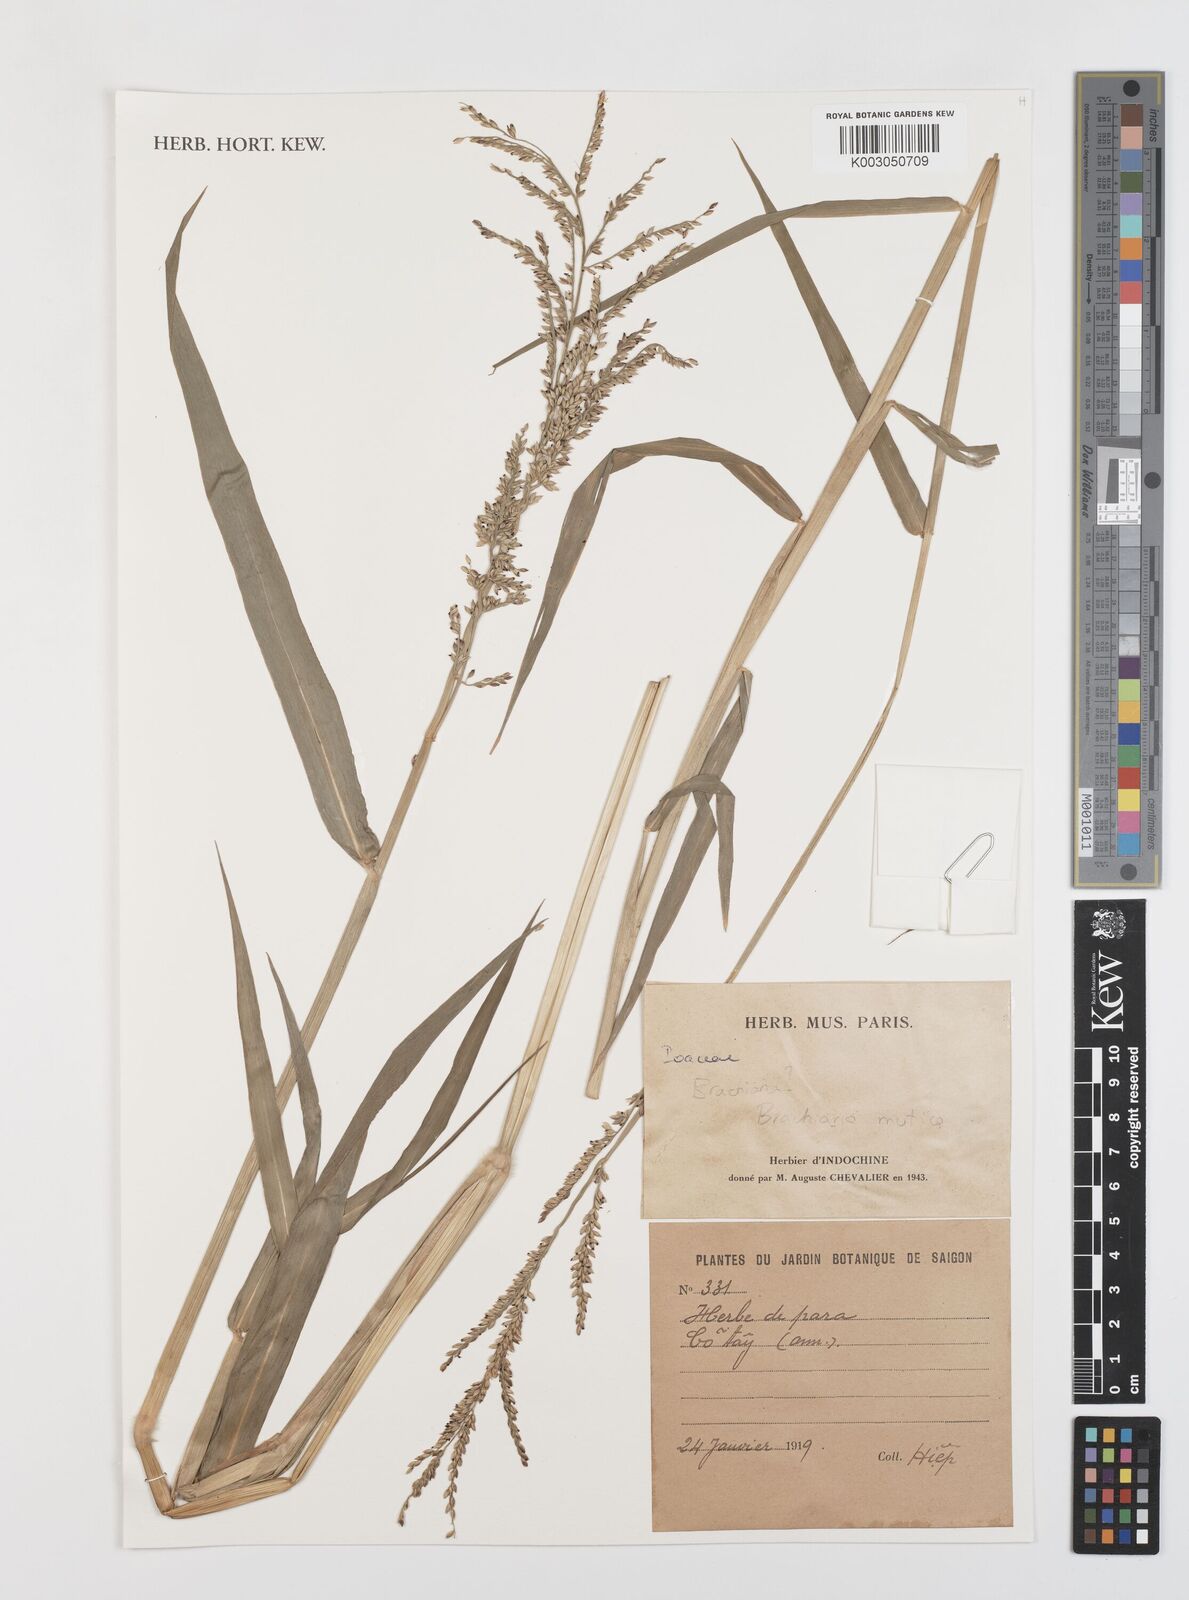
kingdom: Plantae
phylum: Tracheophyta
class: Liliopsida
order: Poales
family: Poaceae
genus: Urochloa
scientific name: Urochloa mutica
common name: Para grass
